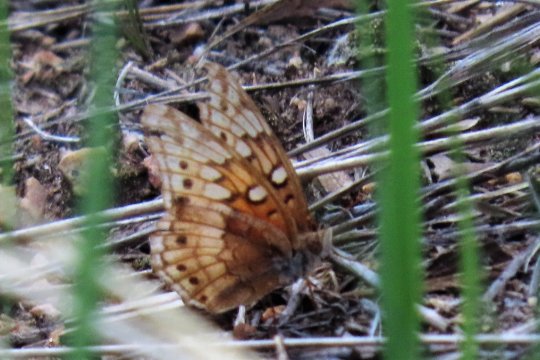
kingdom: Animalia
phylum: Arthropoda
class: Insecta
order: Lepidoptera
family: Nymphalidae
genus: Euptoieta
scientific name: Euptoieta claudia
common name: Variegated Fritillary
